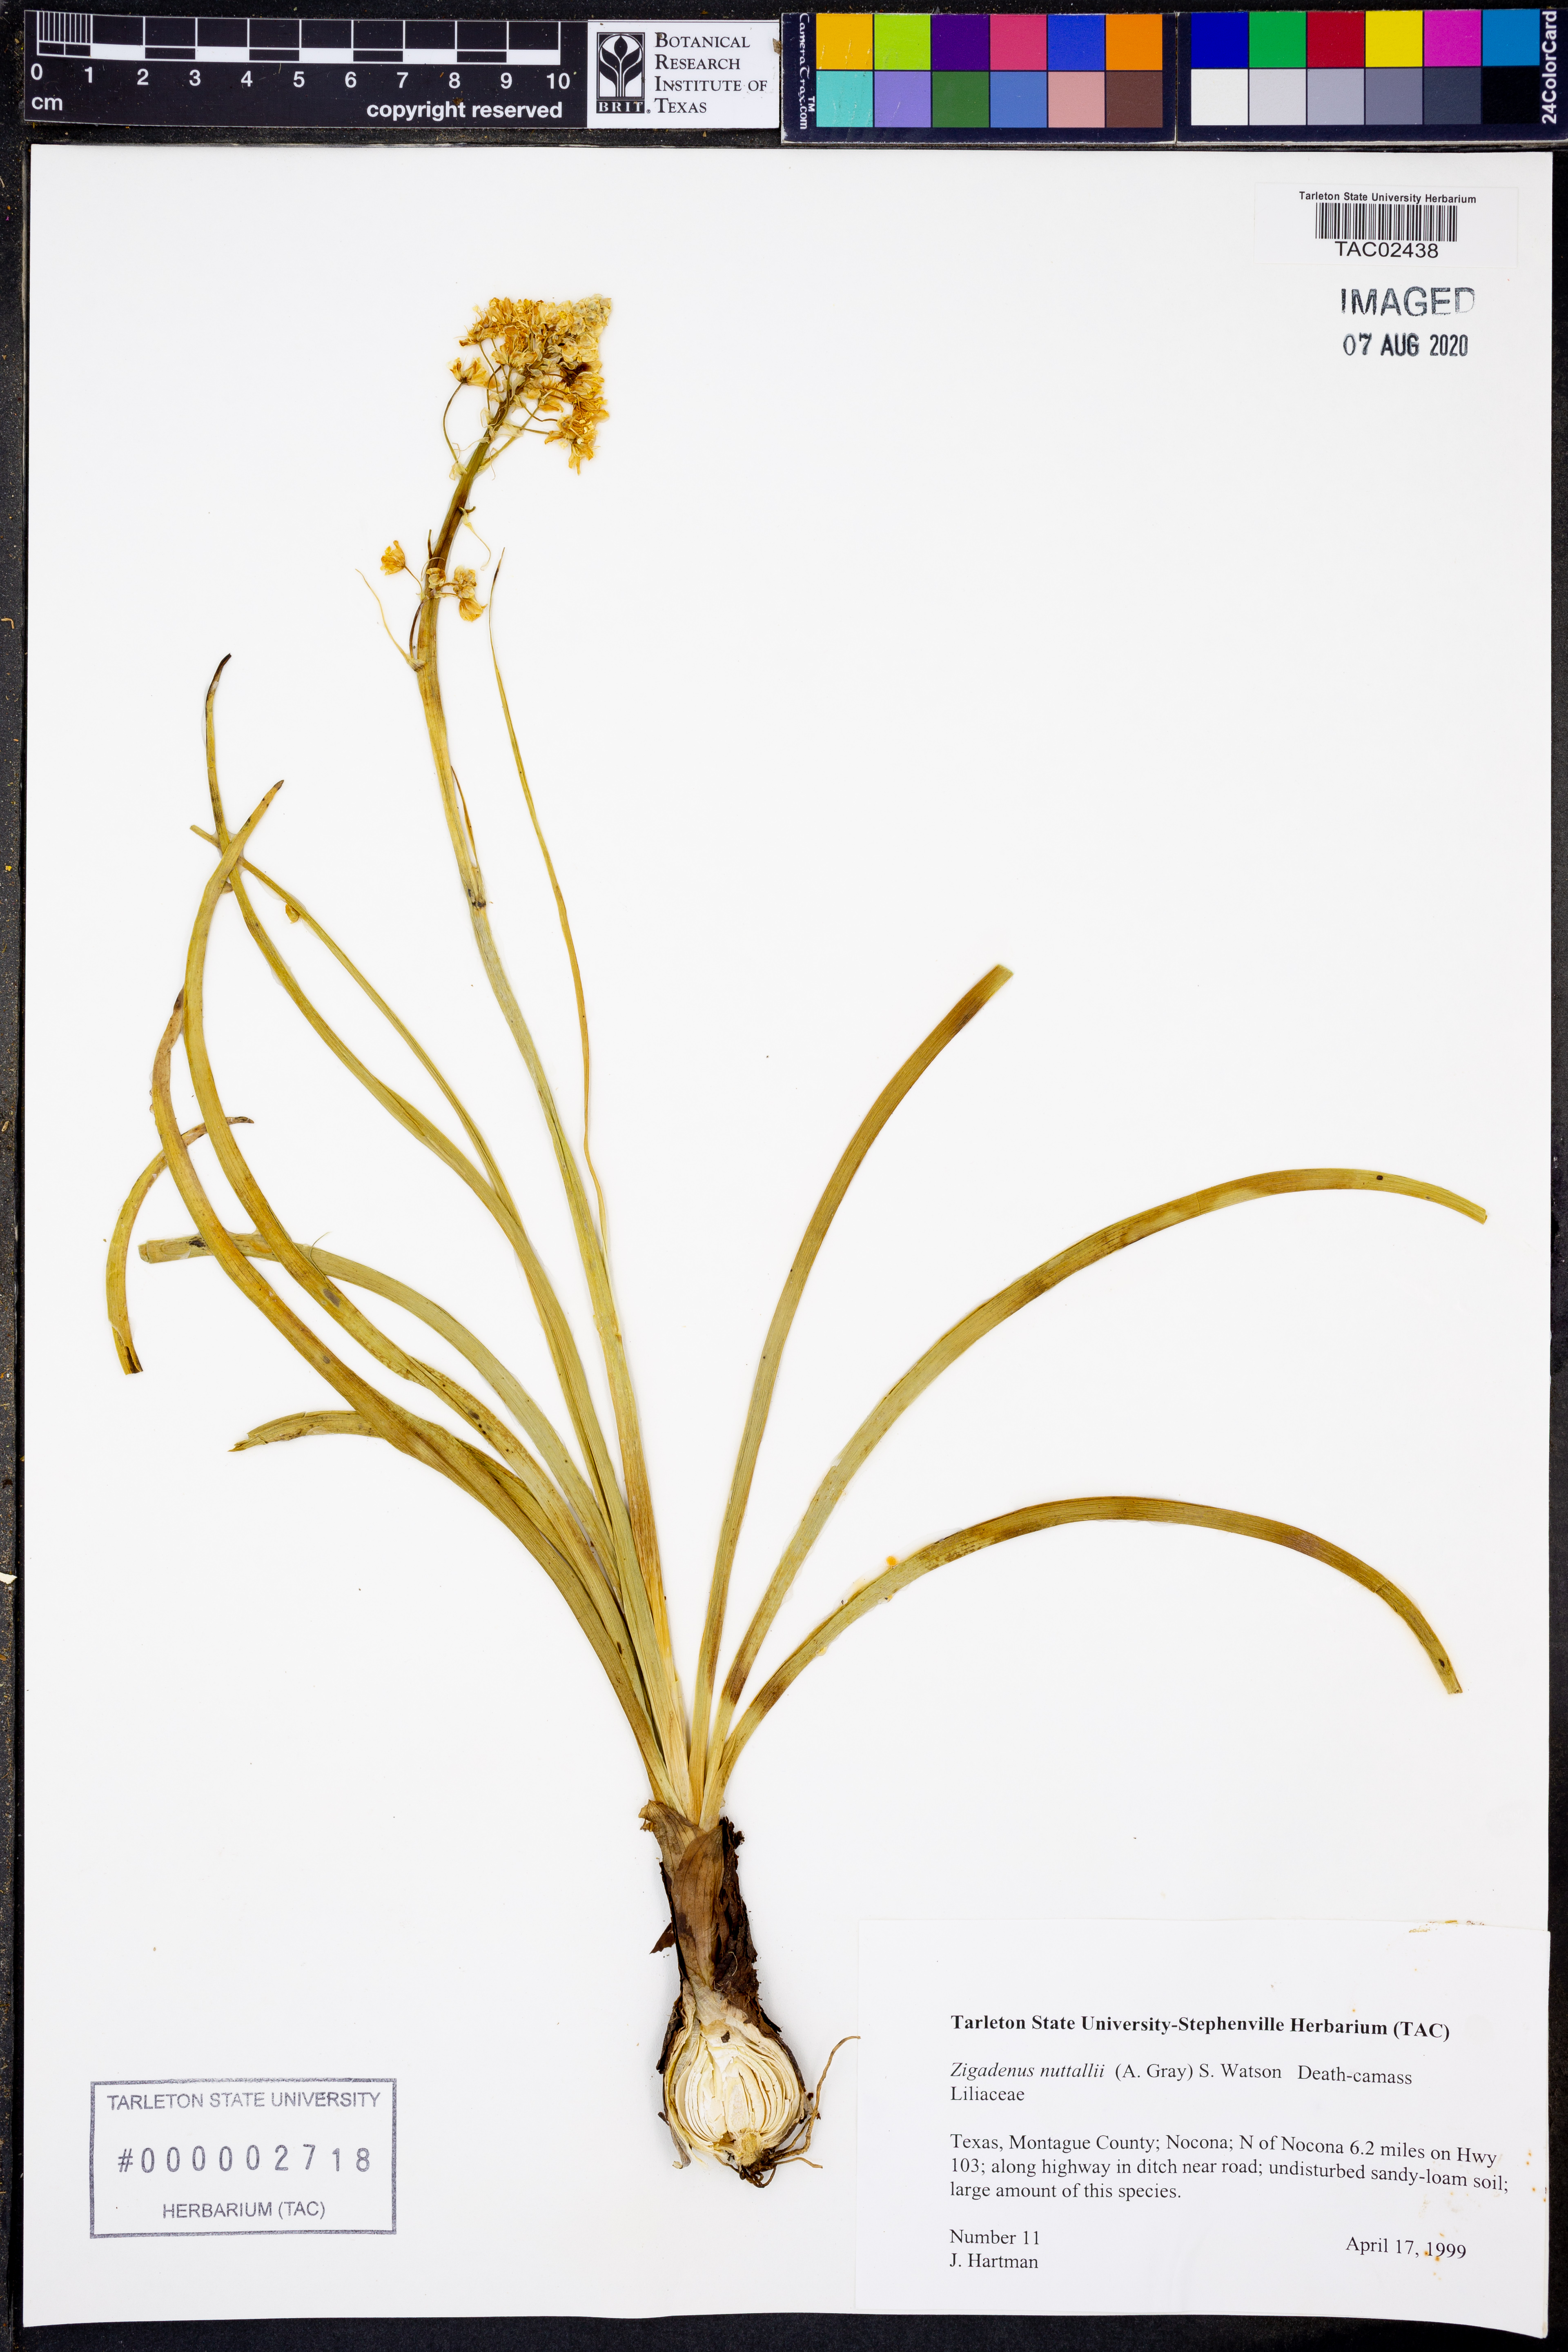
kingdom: Plantae
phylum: Tracheophyta
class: Liliopsida
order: Liliales
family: Melanthiaceae
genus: Toxicoscordion
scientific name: Toxicoscordion nuttallii
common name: Poison sego
